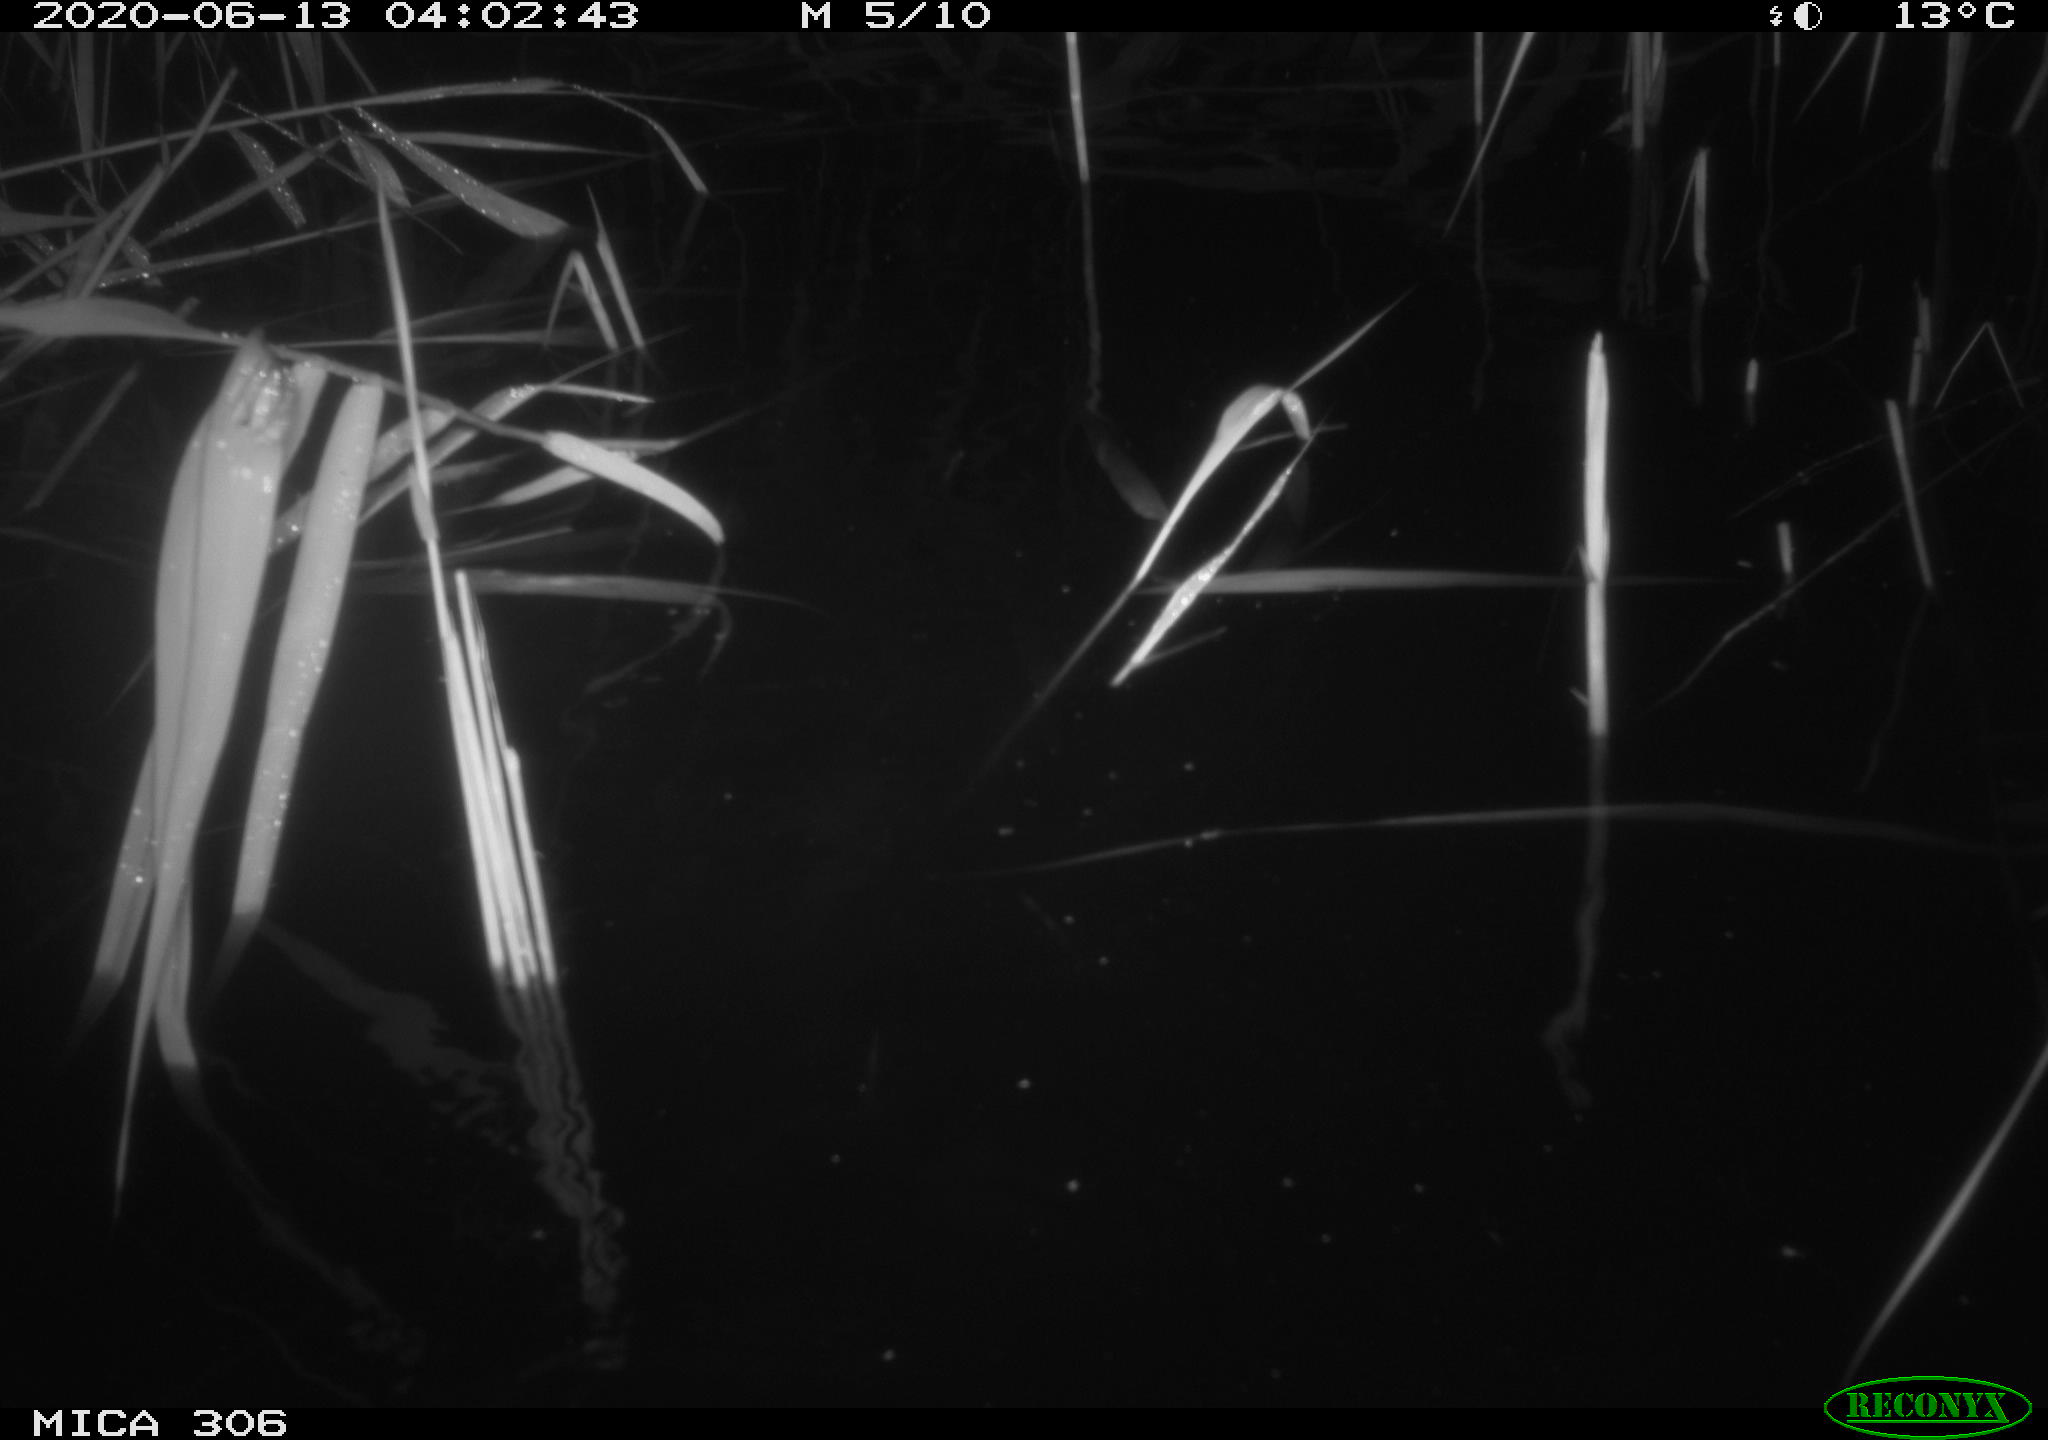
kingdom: Animalia
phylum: Chordata
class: Mammalia
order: Rodentia
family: Muridae
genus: Rattus
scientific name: Rattus norvegicus
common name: Brown rat
